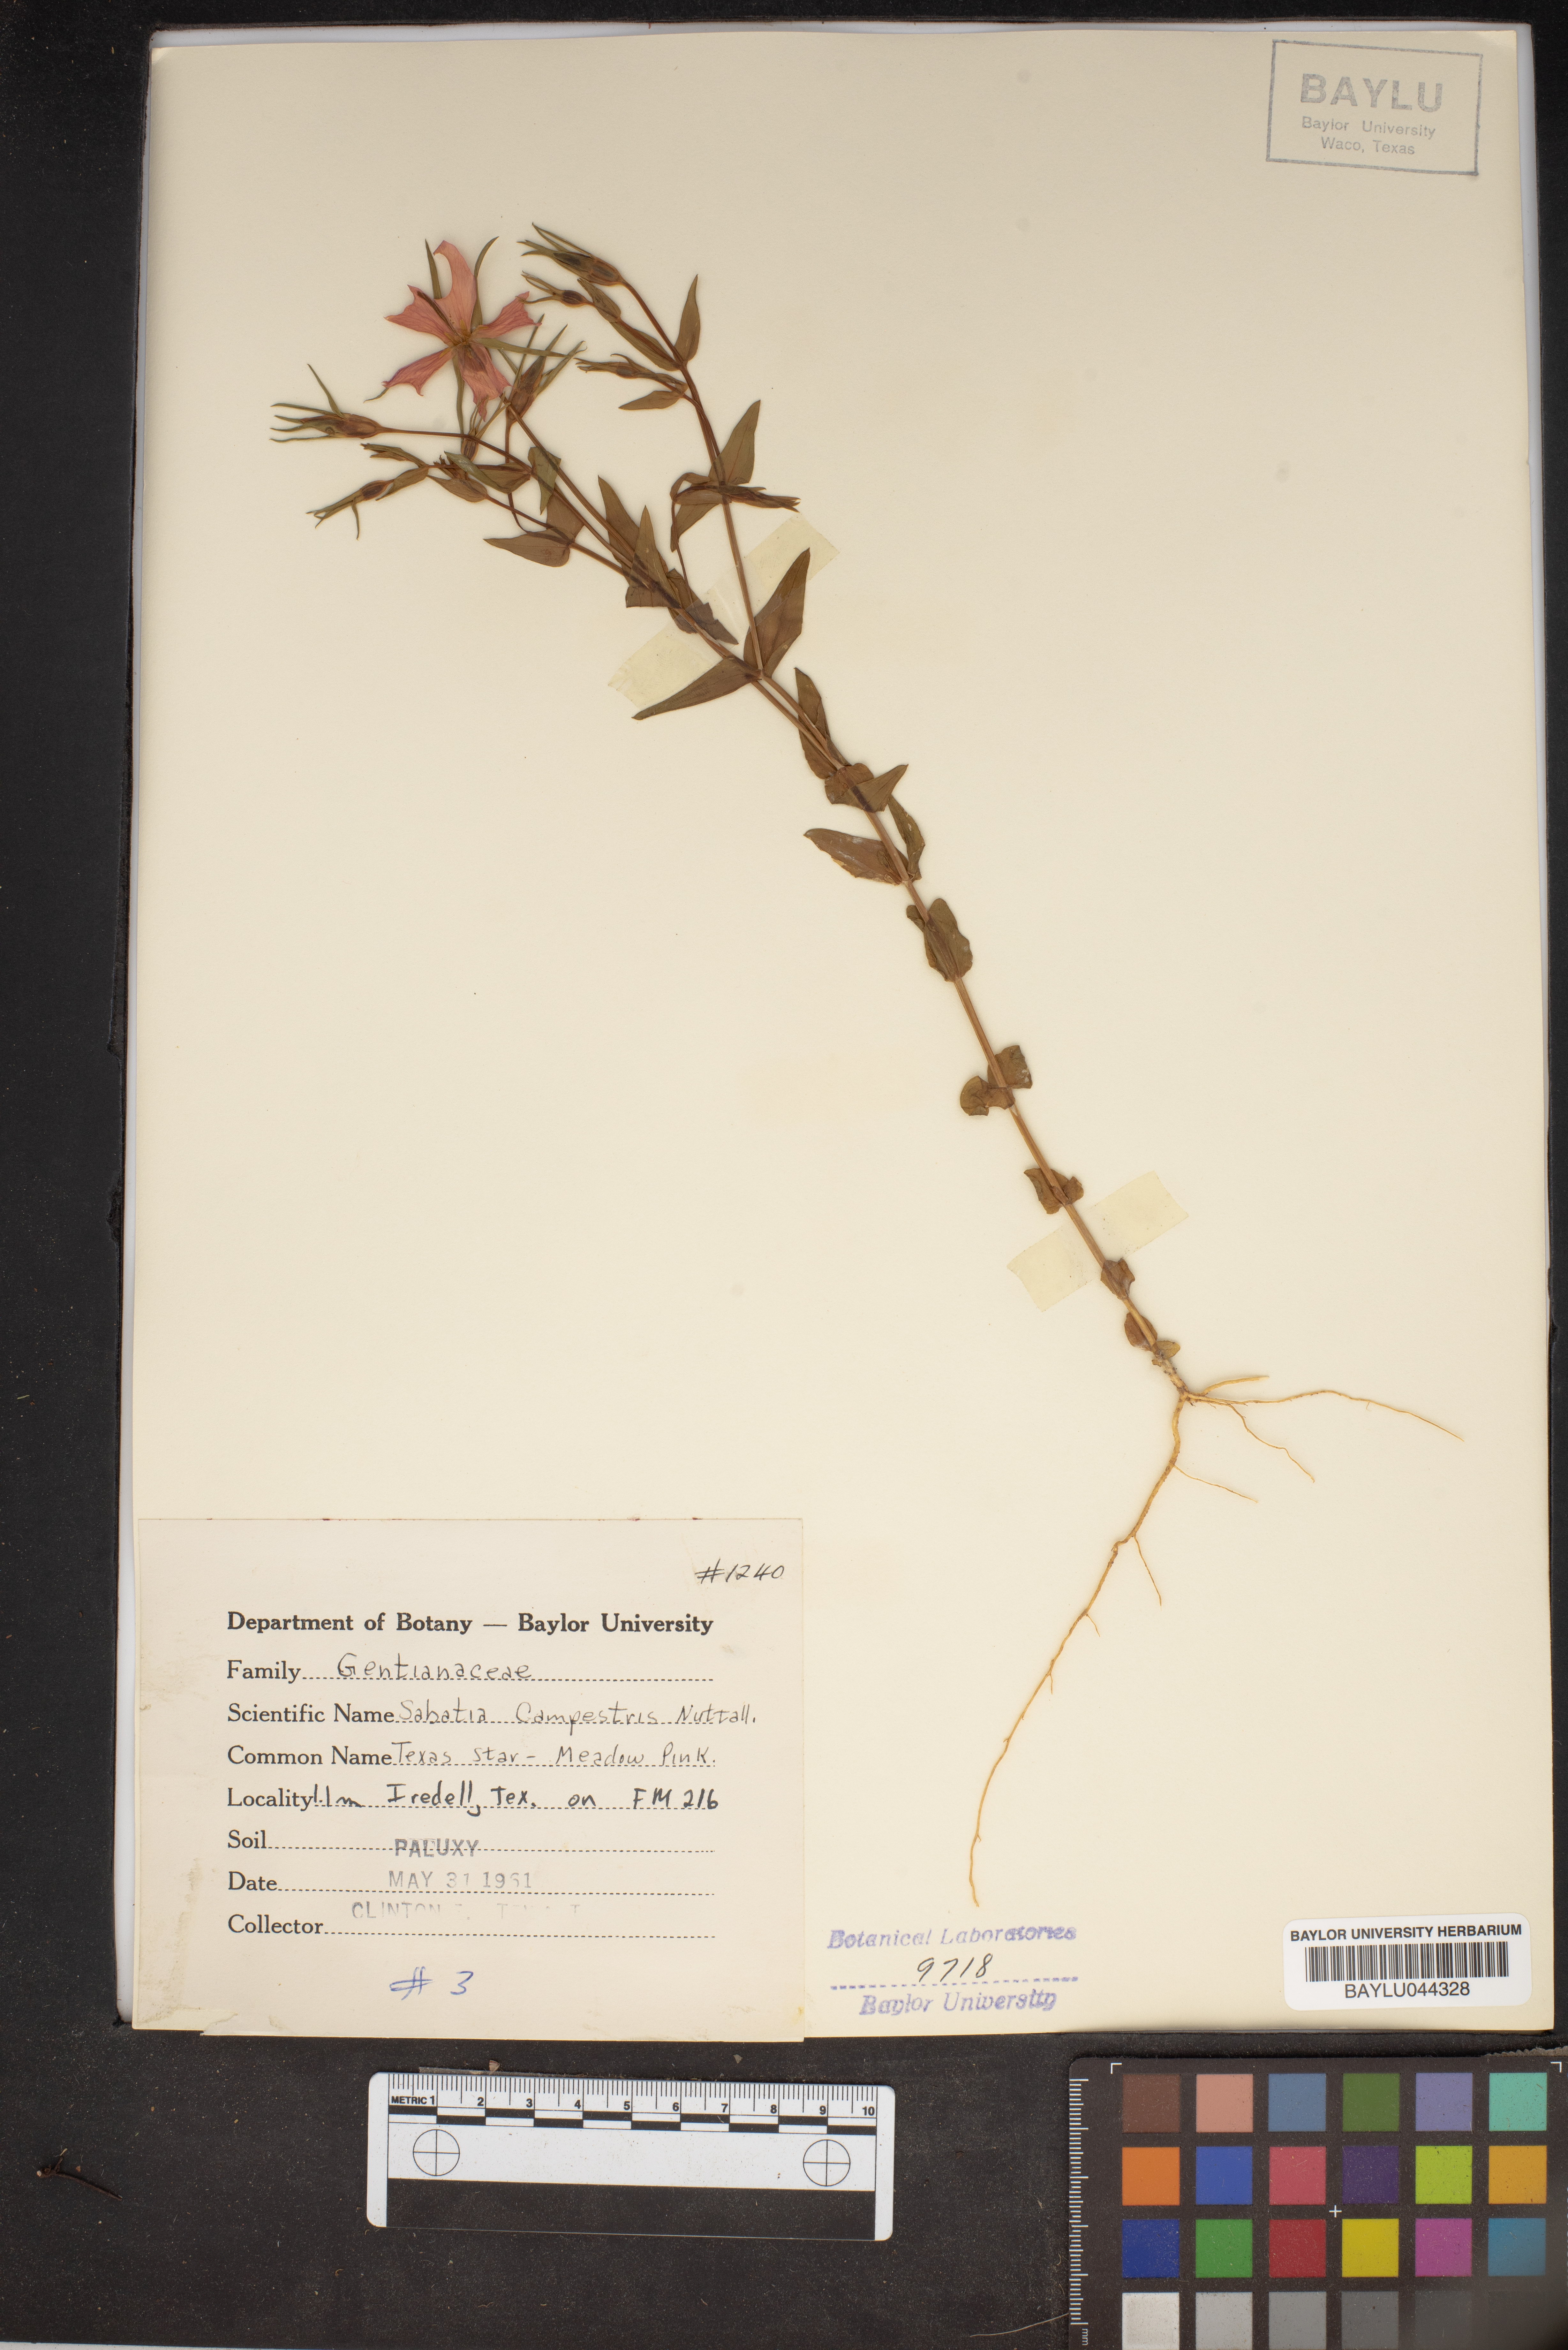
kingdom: Plantae
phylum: Tracheophyta
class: Magnoliopsida
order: Gentianales
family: Gentianaceae
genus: Sabatia
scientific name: Sabatia campestris
